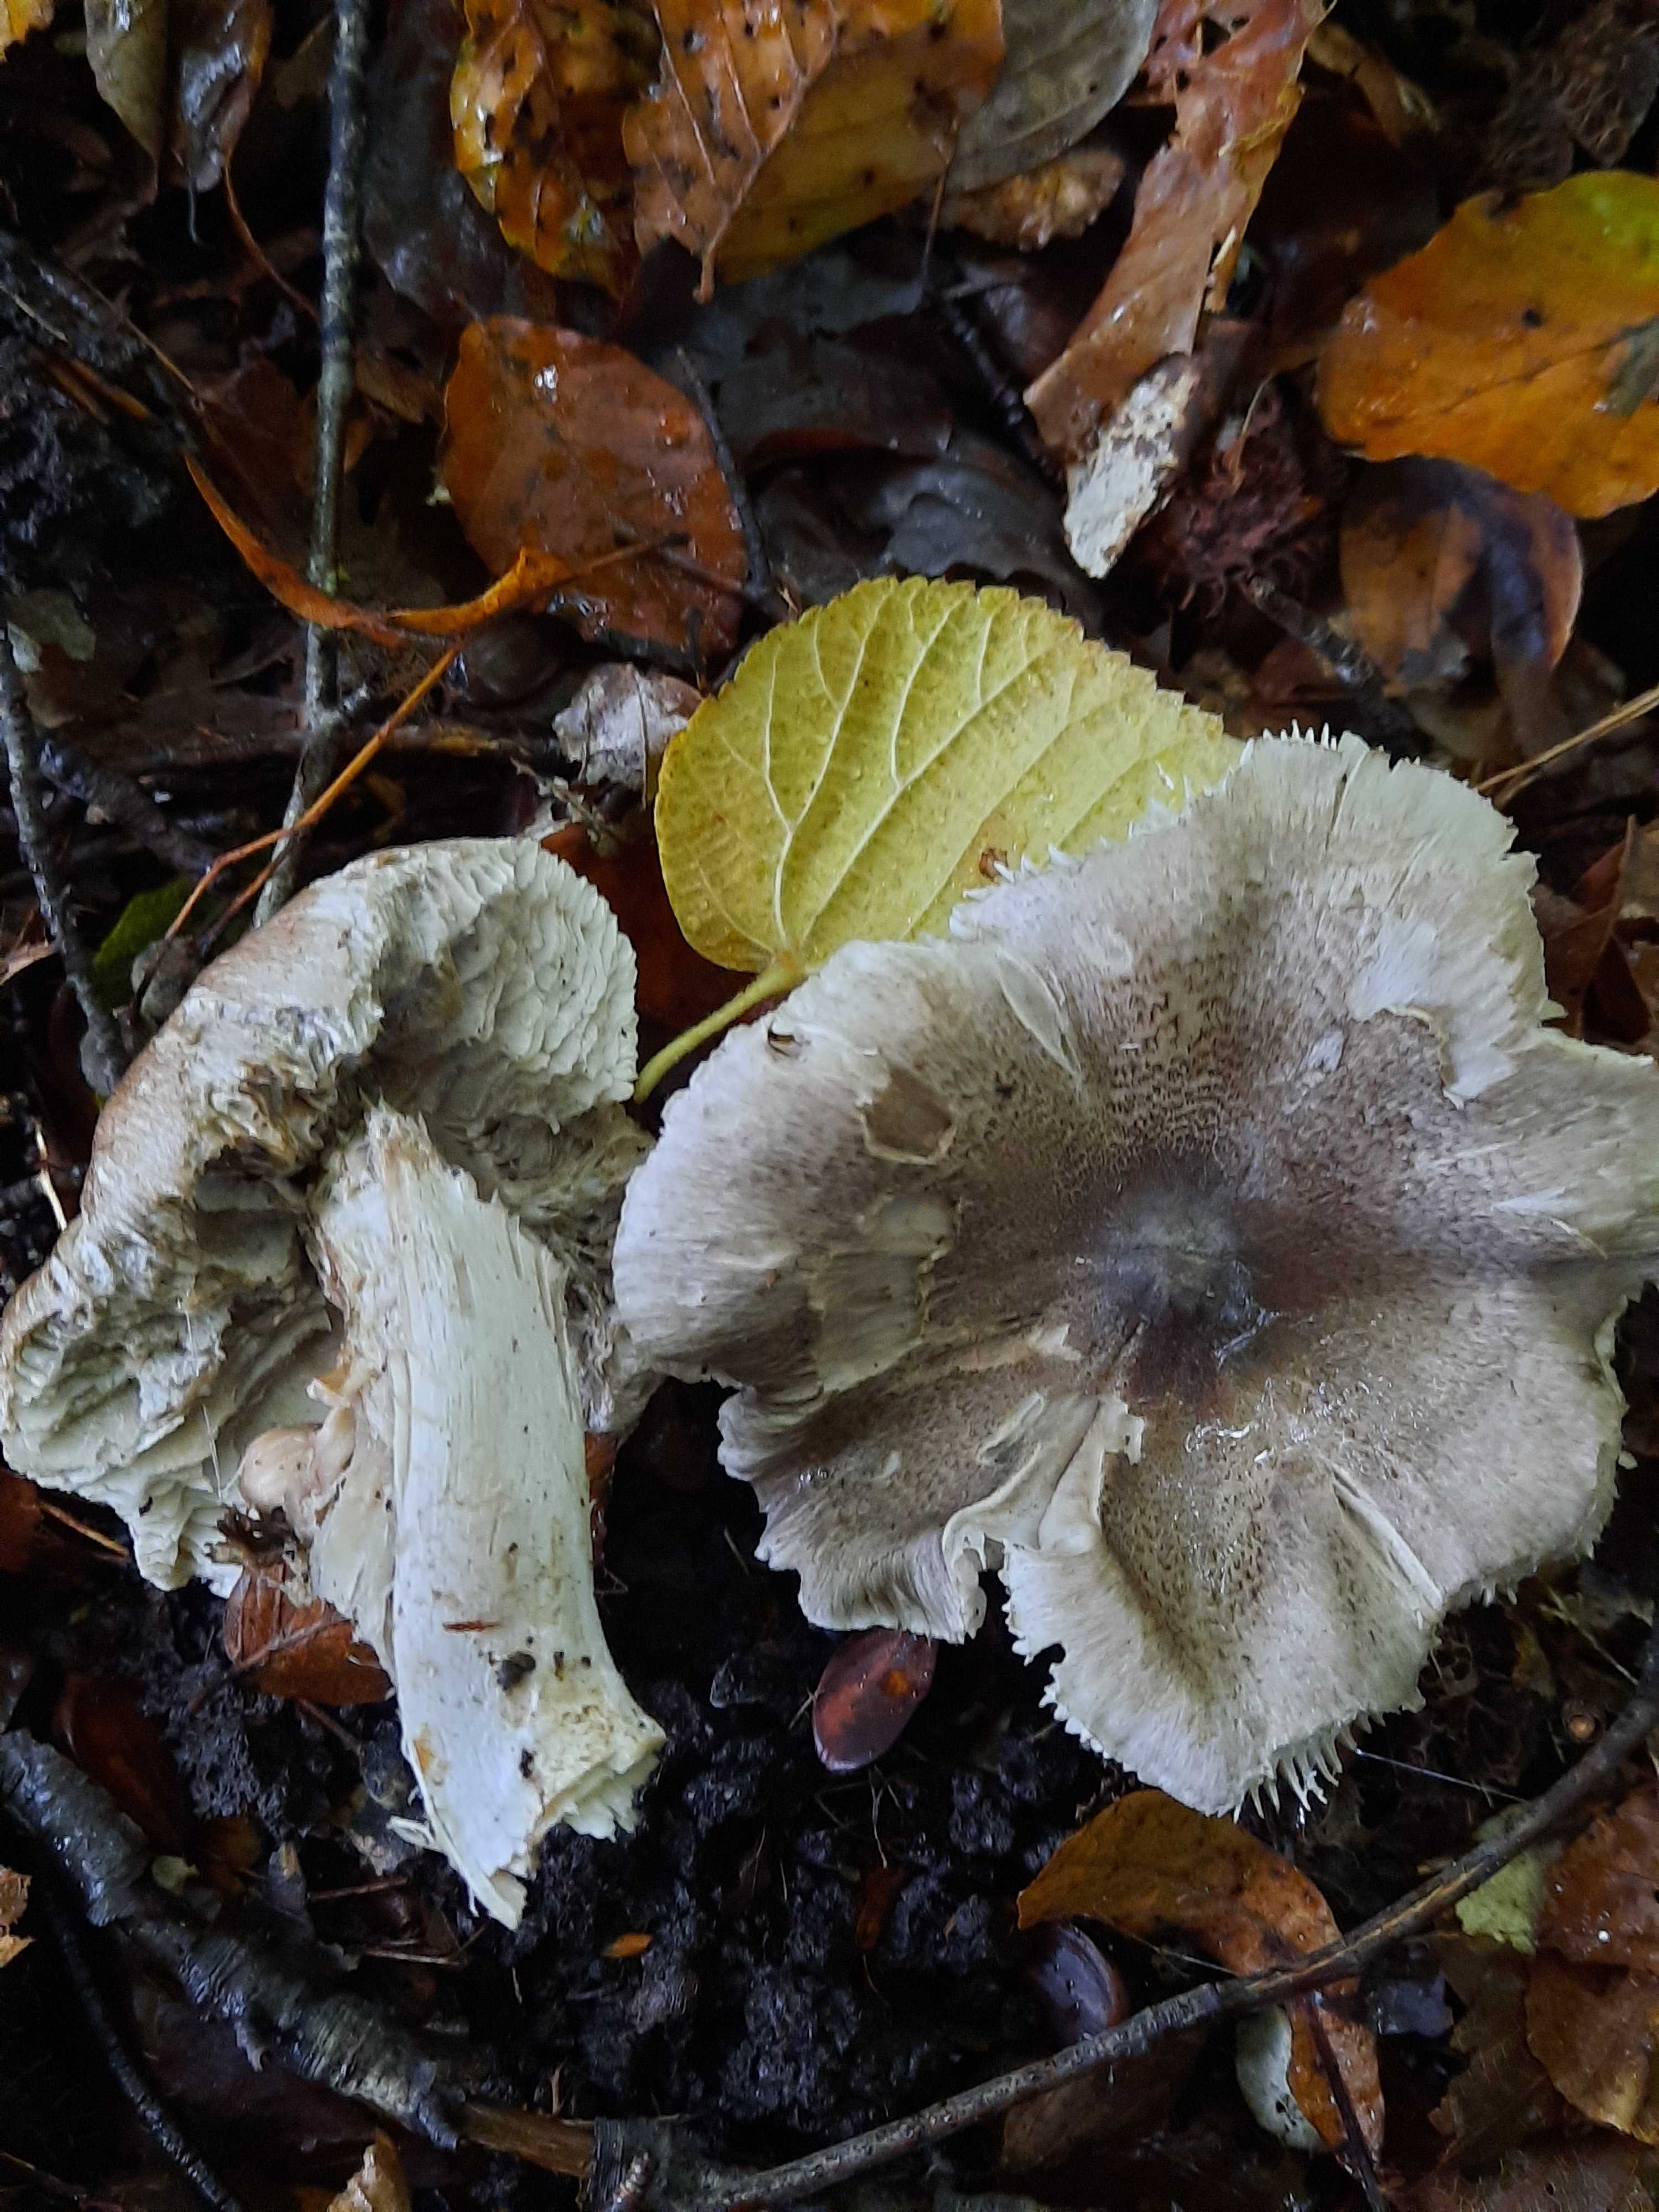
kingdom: Fungi
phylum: Basidiomycota
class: Agaricomycetes
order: Agaricales
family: Tricholomataceae
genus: Tricholoma
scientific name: Tricholoma sciodes
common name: stribet ridderhat
